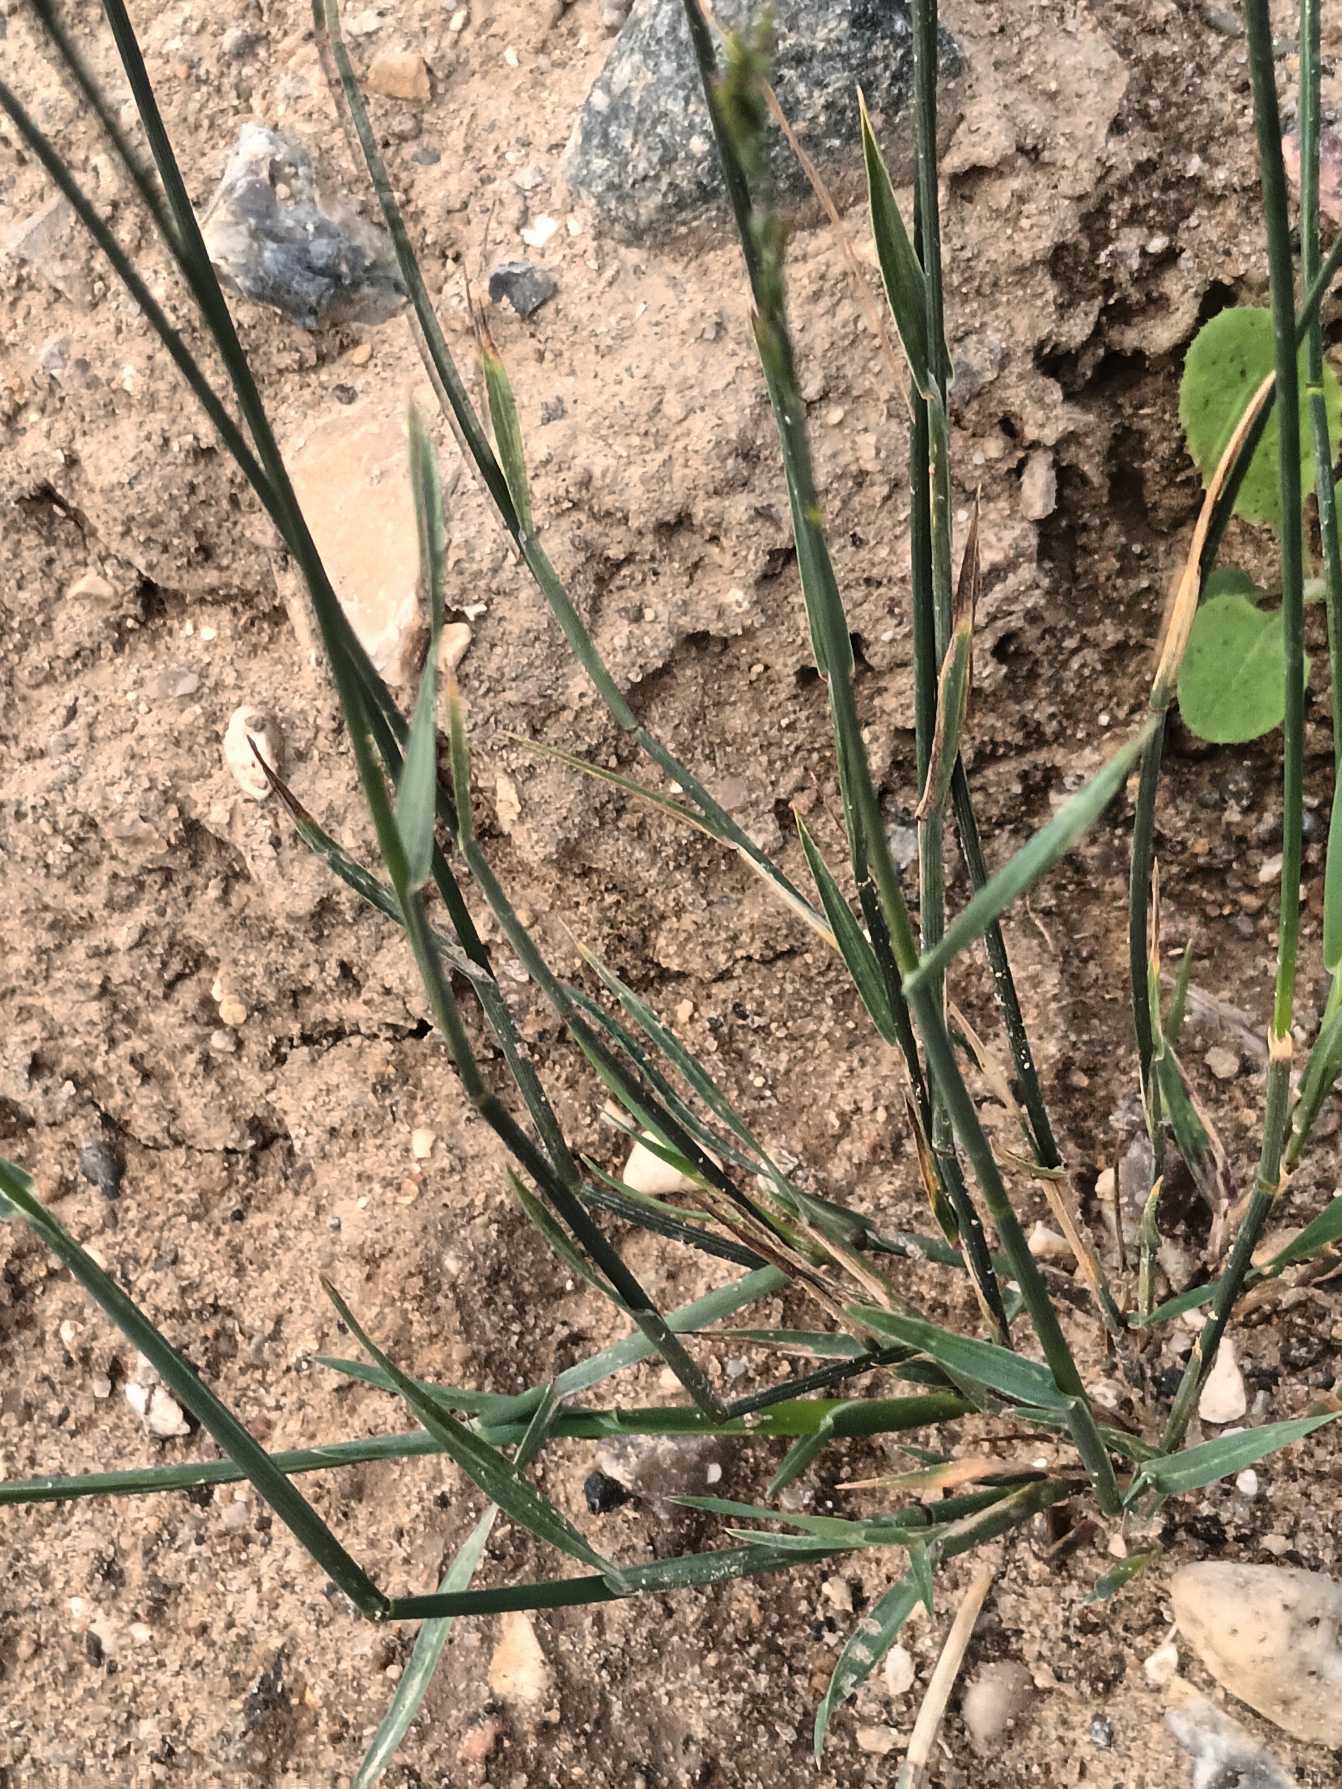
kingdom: Plantae
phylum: Tracheophyta
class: Liliopsida
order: Poales
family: Poaceae
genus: Poa
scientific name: Poa compressa
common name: Fladstrået rapgræs
